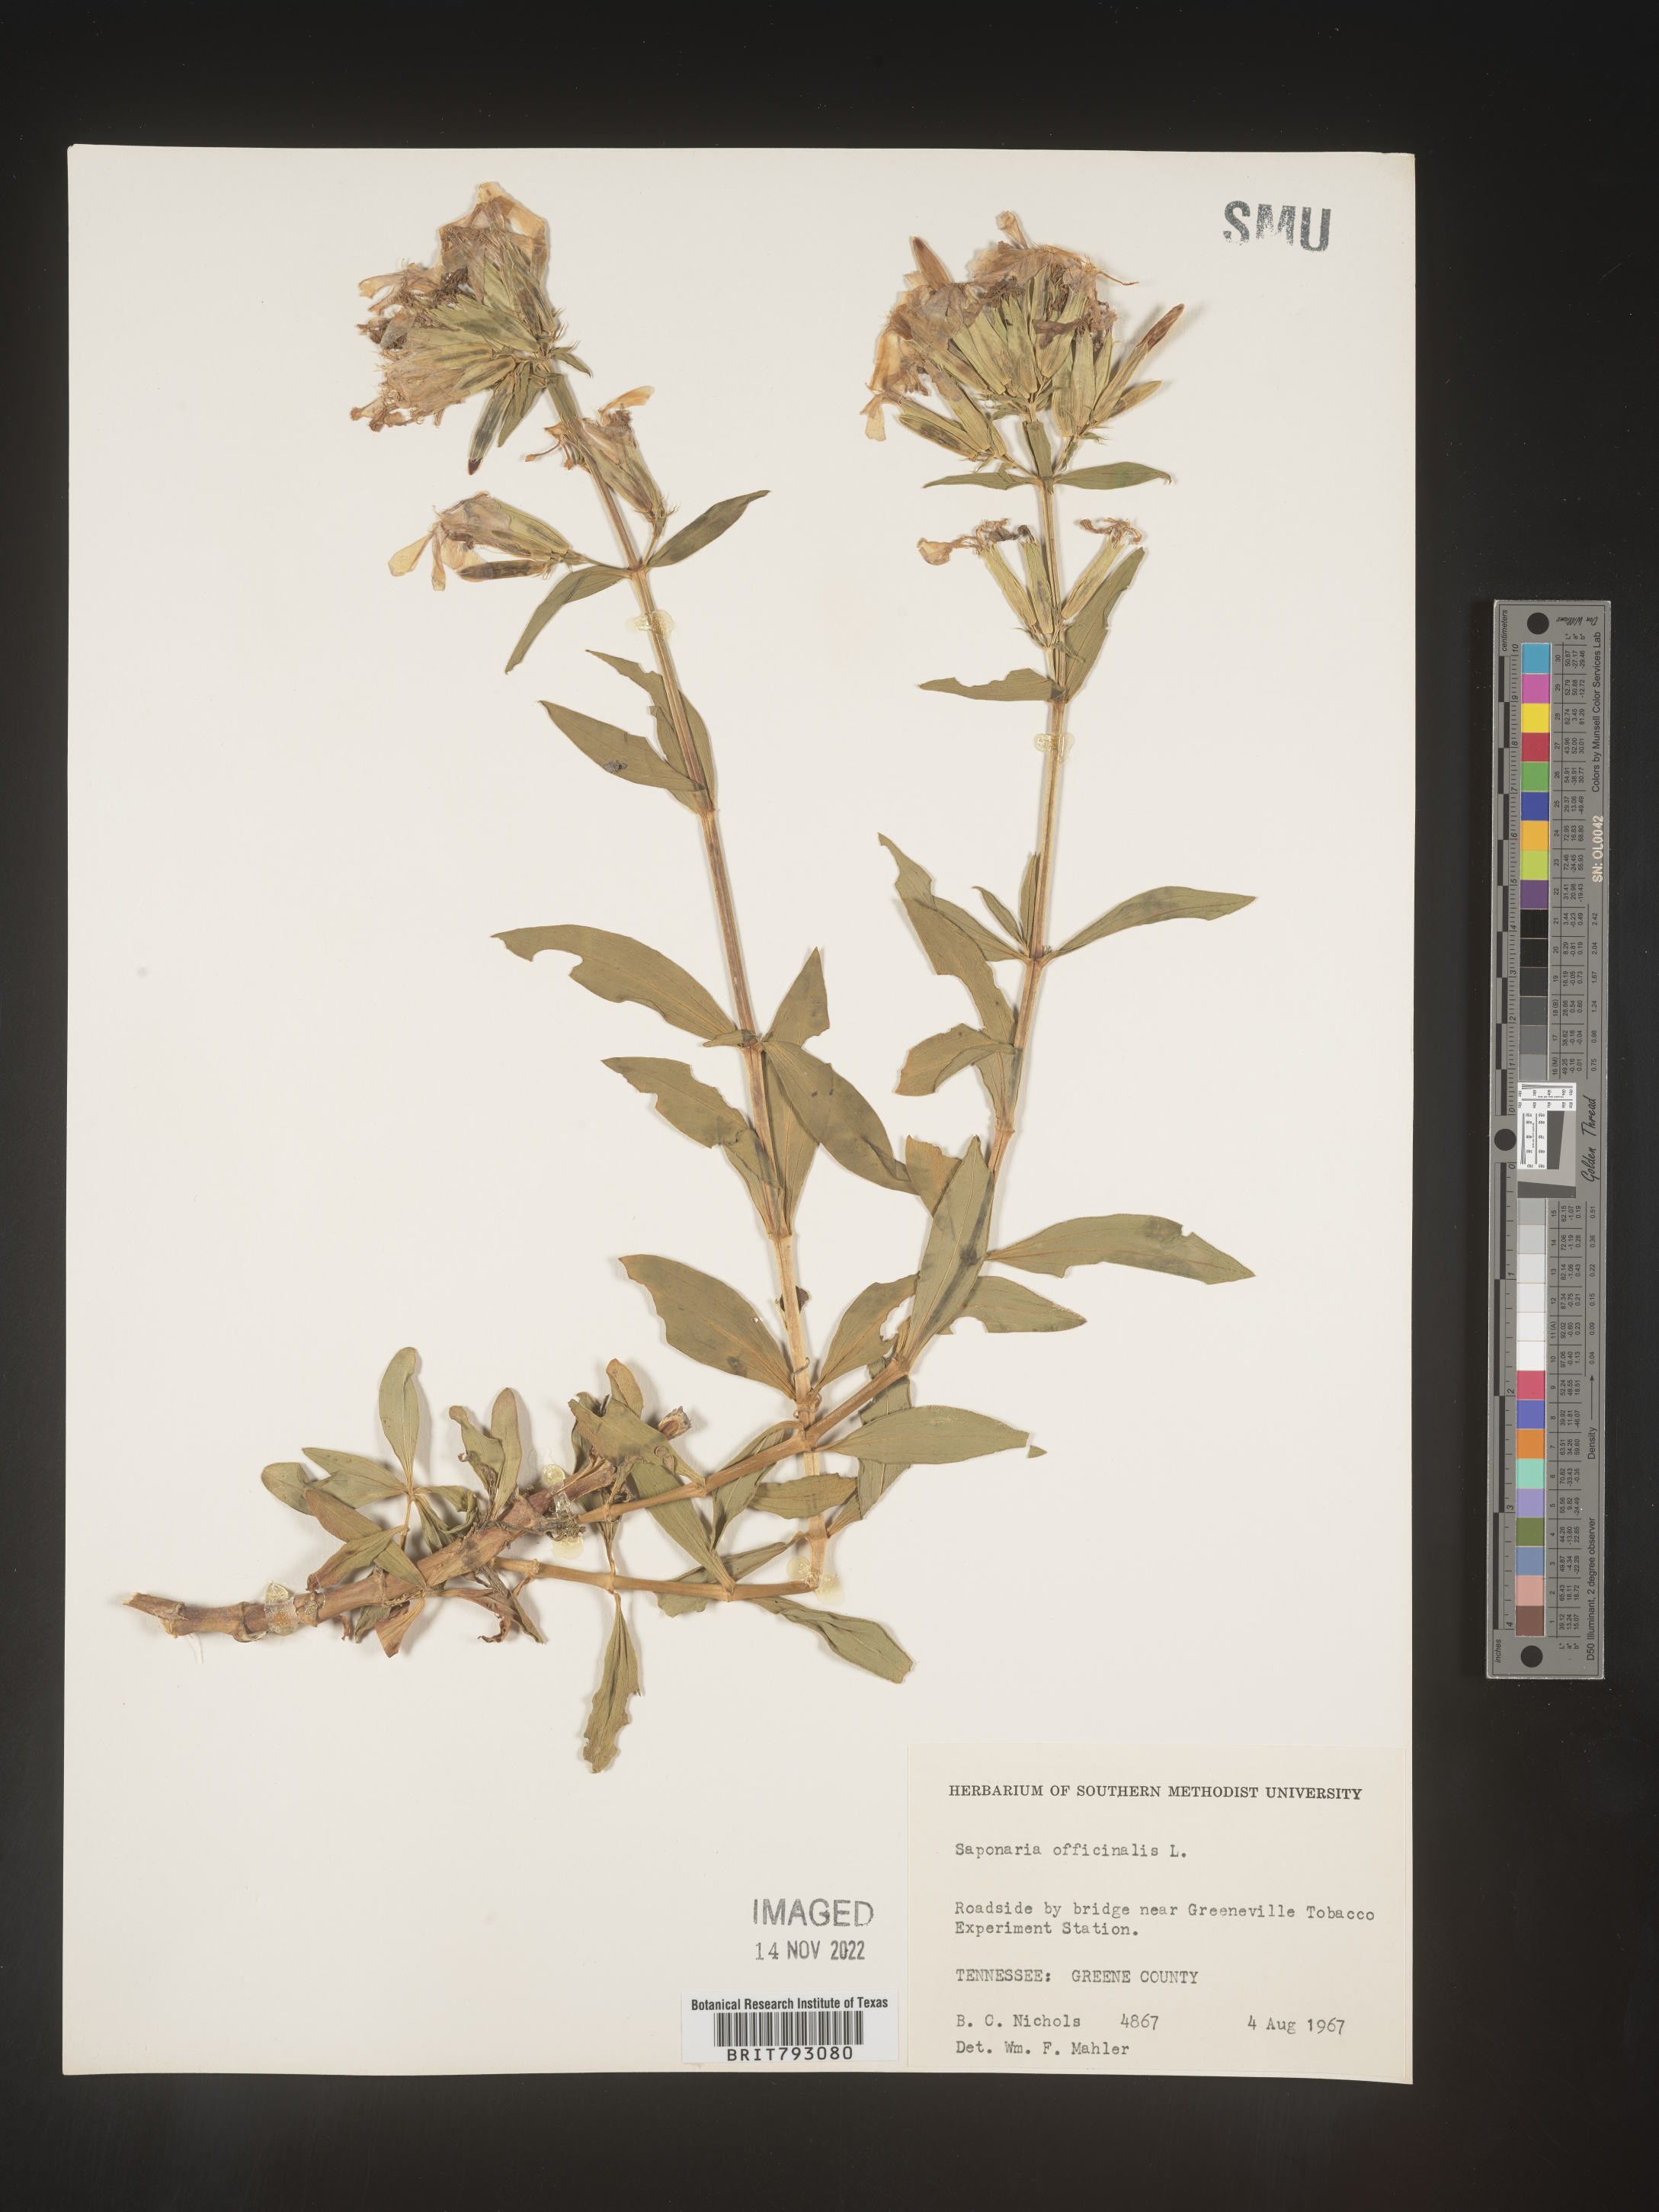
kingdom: Plantae
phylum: Tracheophyta
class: Magnoliopsida
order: Caryophyllales
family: Caryophyllaceae
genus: Saponaria
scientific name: Saponaria officinalis
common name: Soapwort
